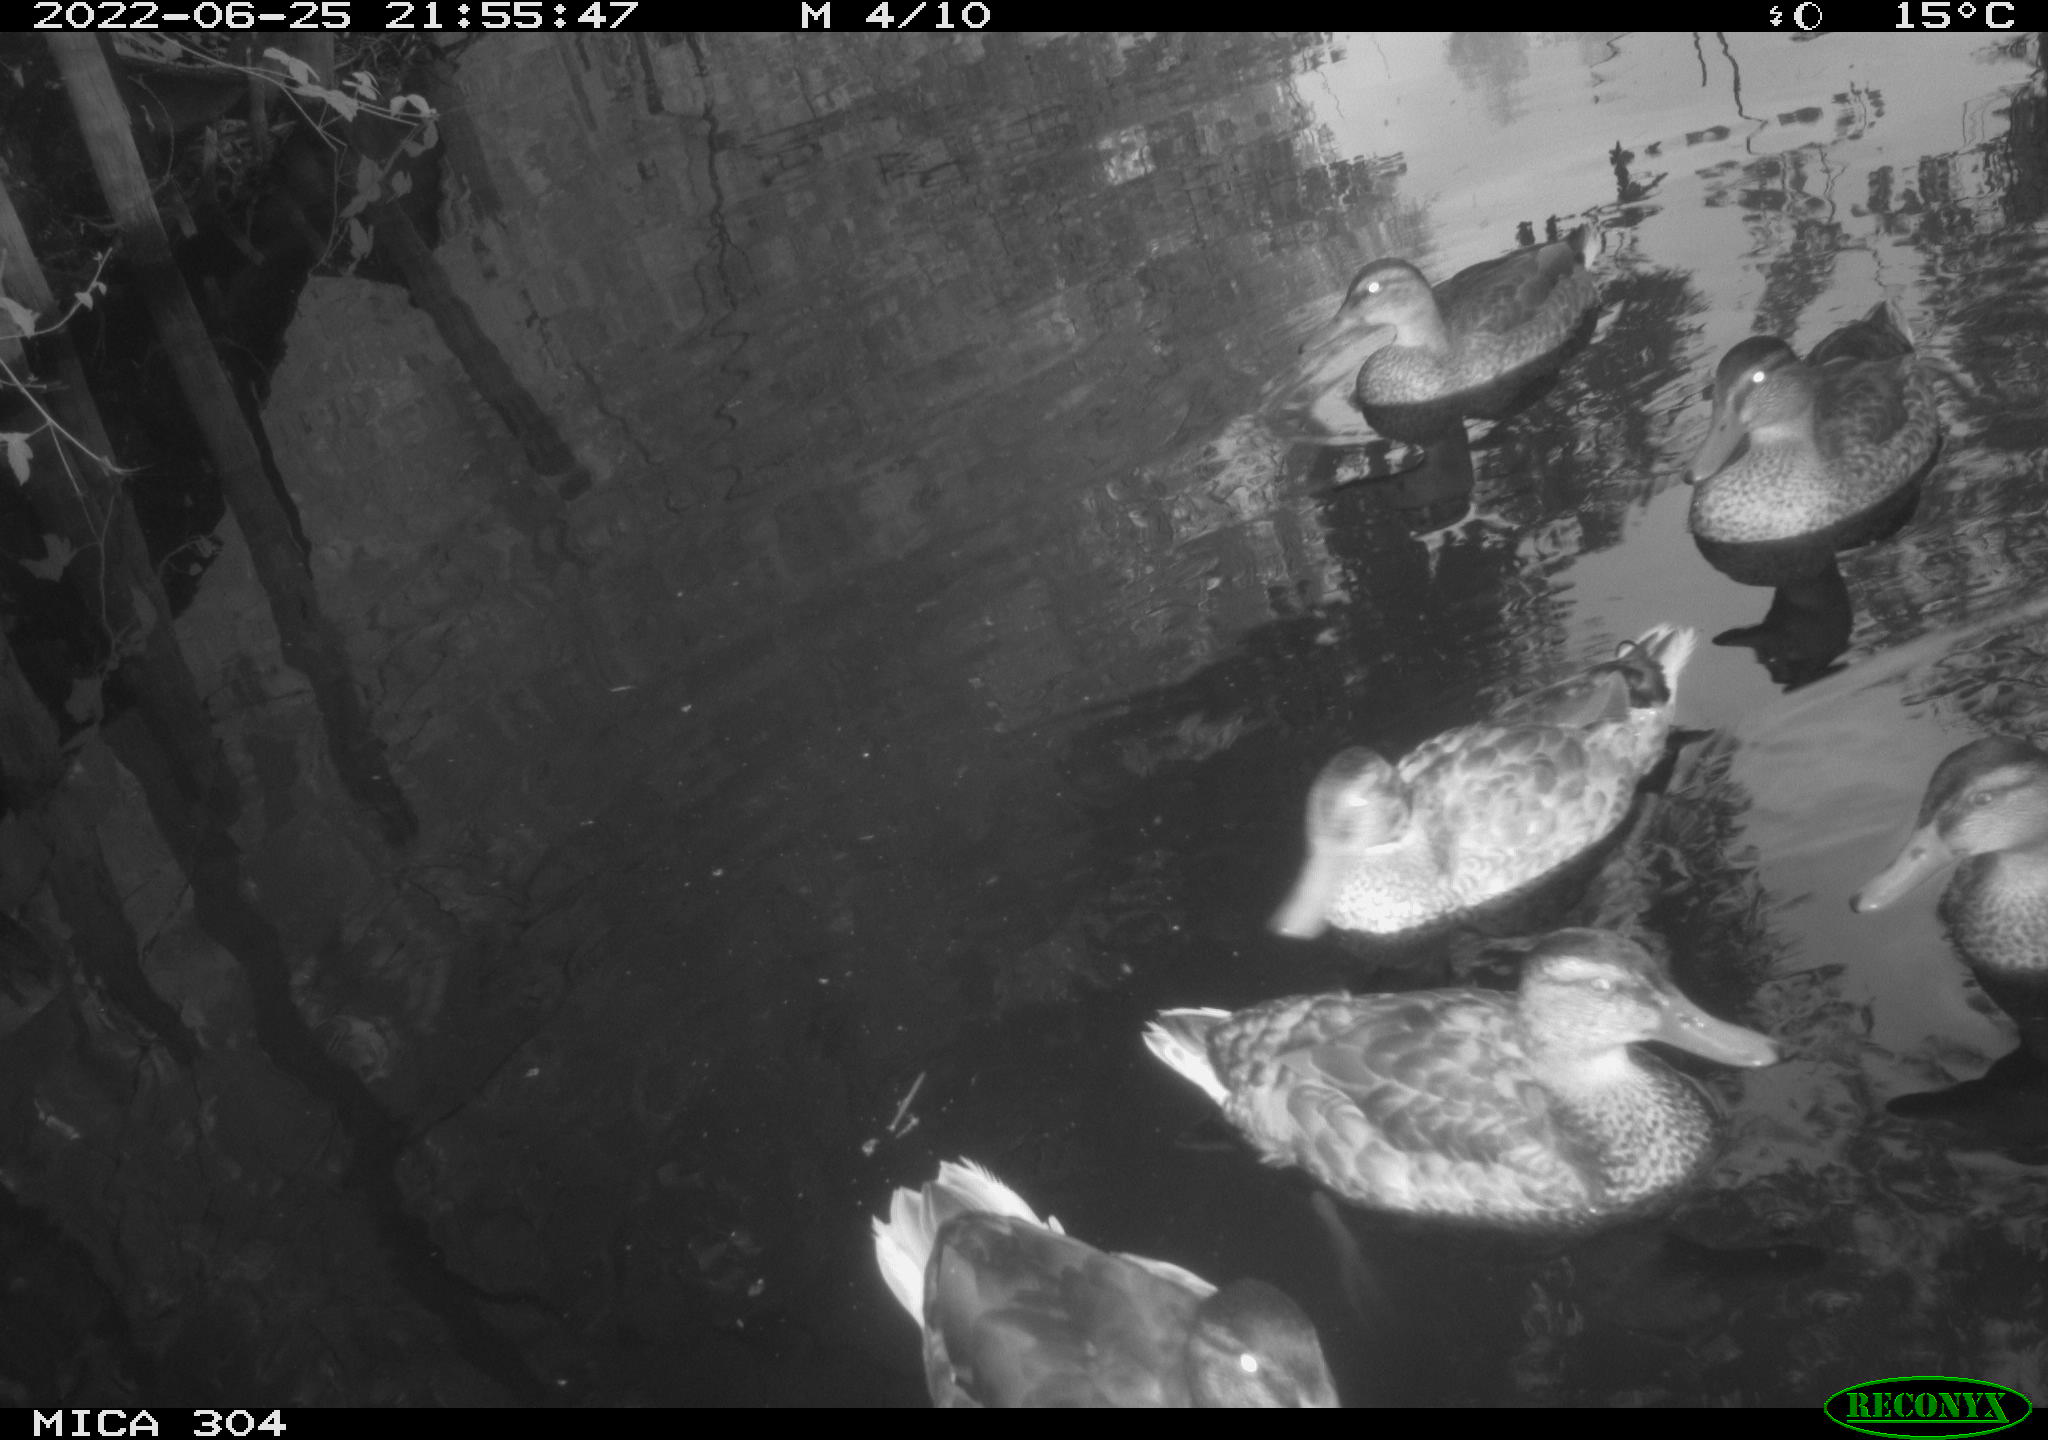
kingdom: Animalia
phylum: Chordata
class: Aves
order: Anseriformes
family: Anatidae
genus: Mareca
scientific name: Mareca strepera
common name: Gadwall
